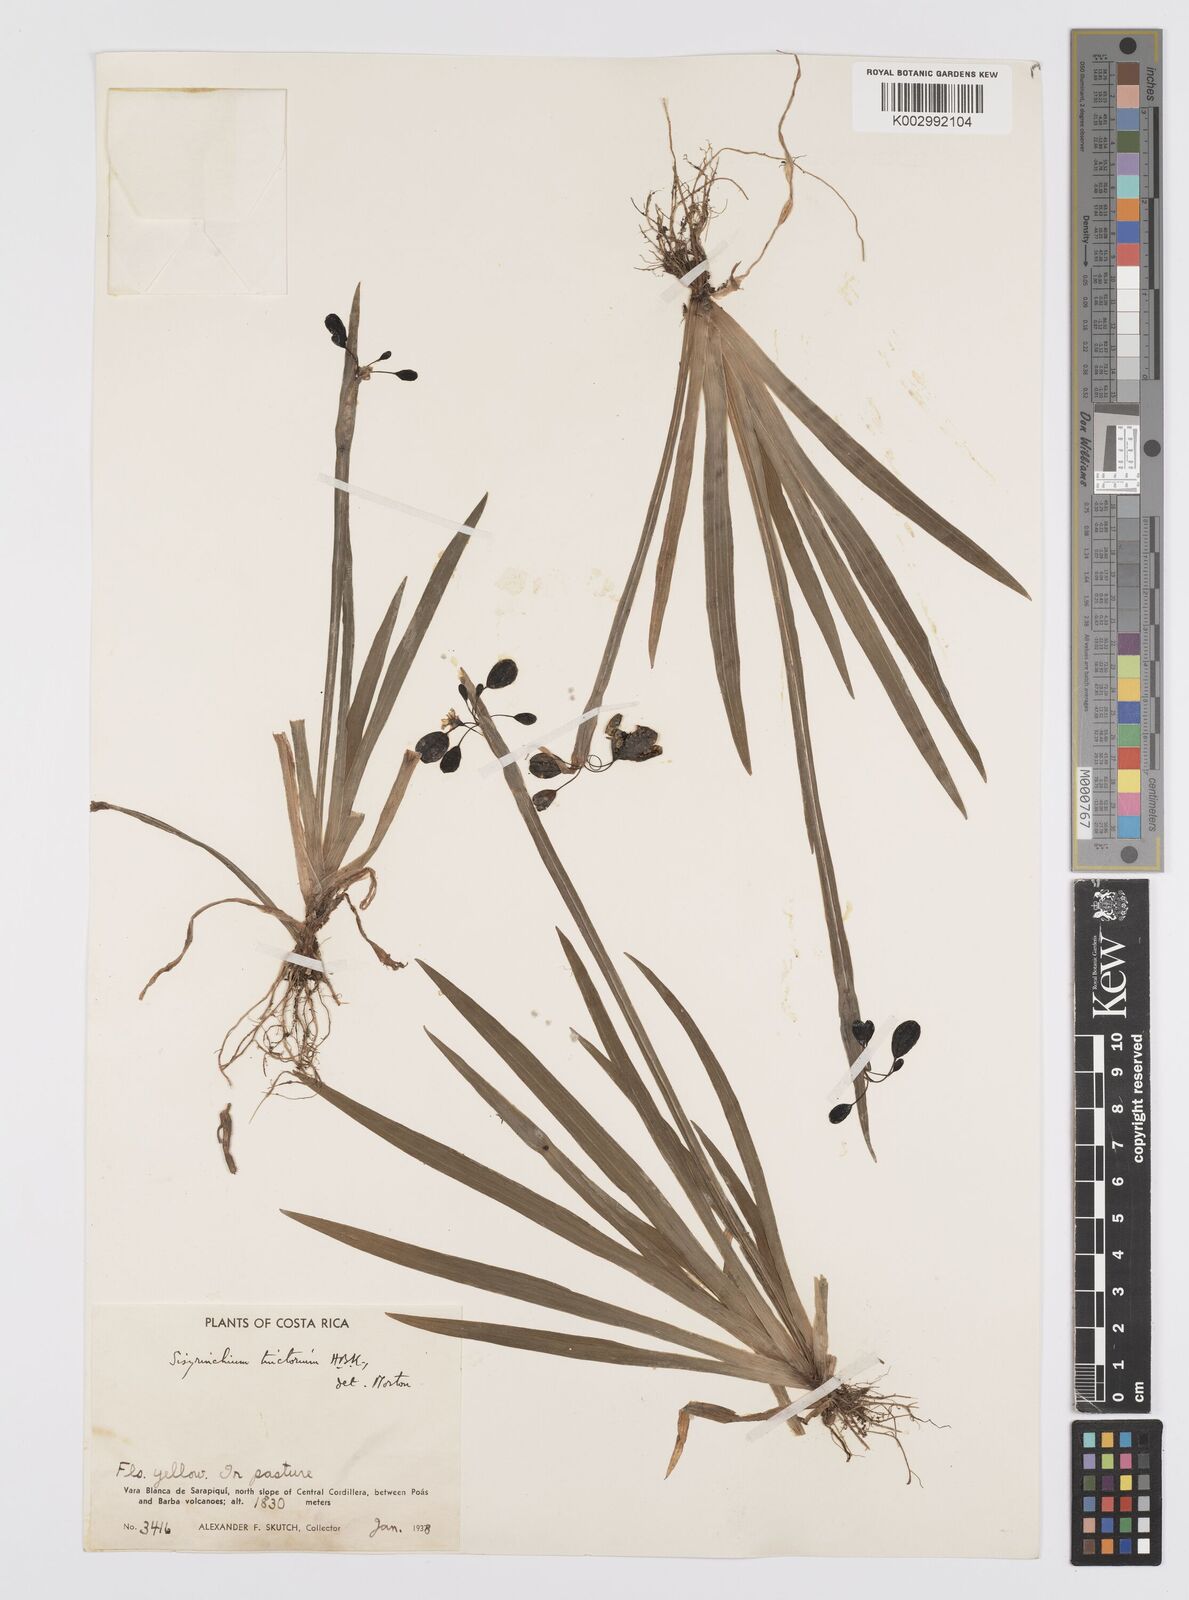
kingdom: Plantae
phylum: Tracheophyta
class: Liliopsida
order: Asparagales
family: Iridaceae
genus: Sisyrinchium
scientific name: Sisyrinchium tinctorium
